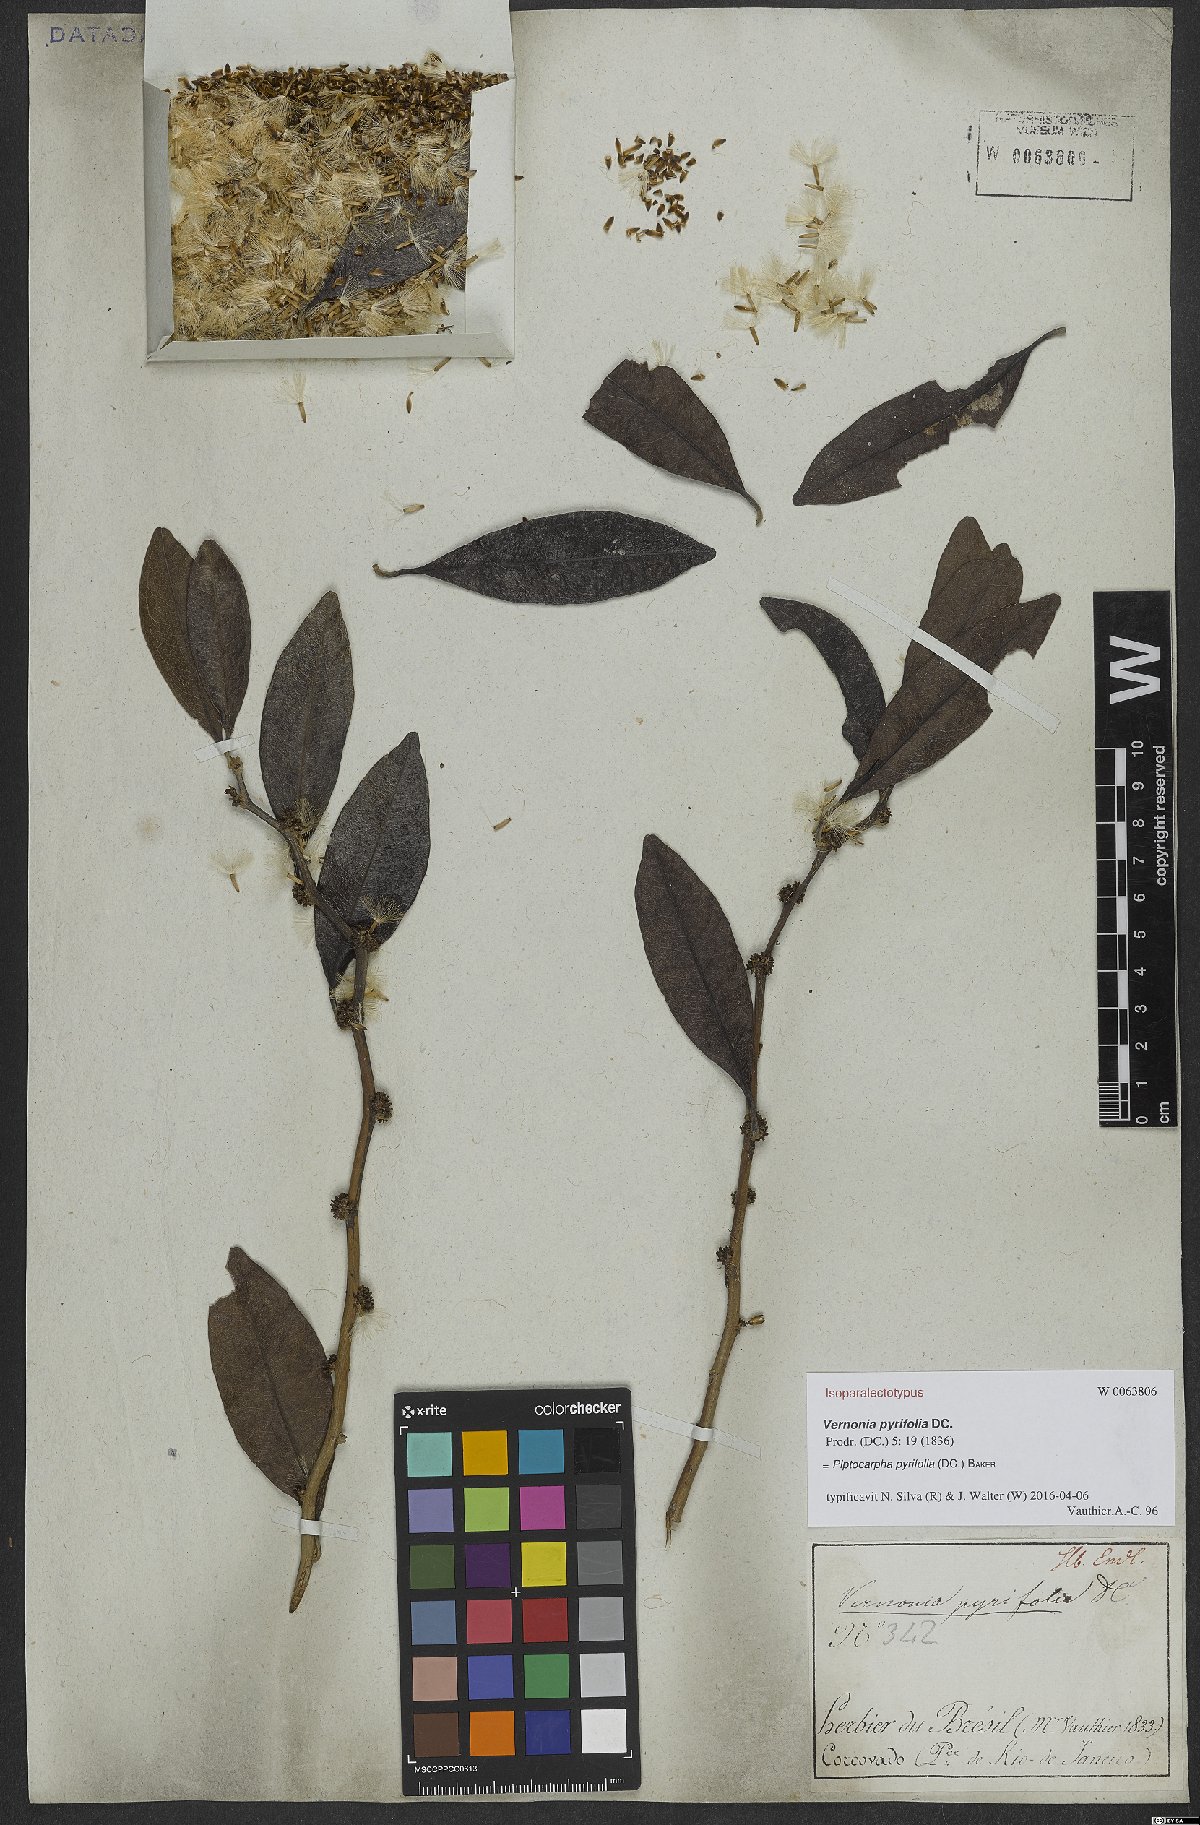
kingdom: Plantae
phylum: Tracheophyta
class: Magnoliopsida
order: Asterales
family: Asteraceae
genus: Piptocarpha
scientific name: Piptocarpha pyrifolia
